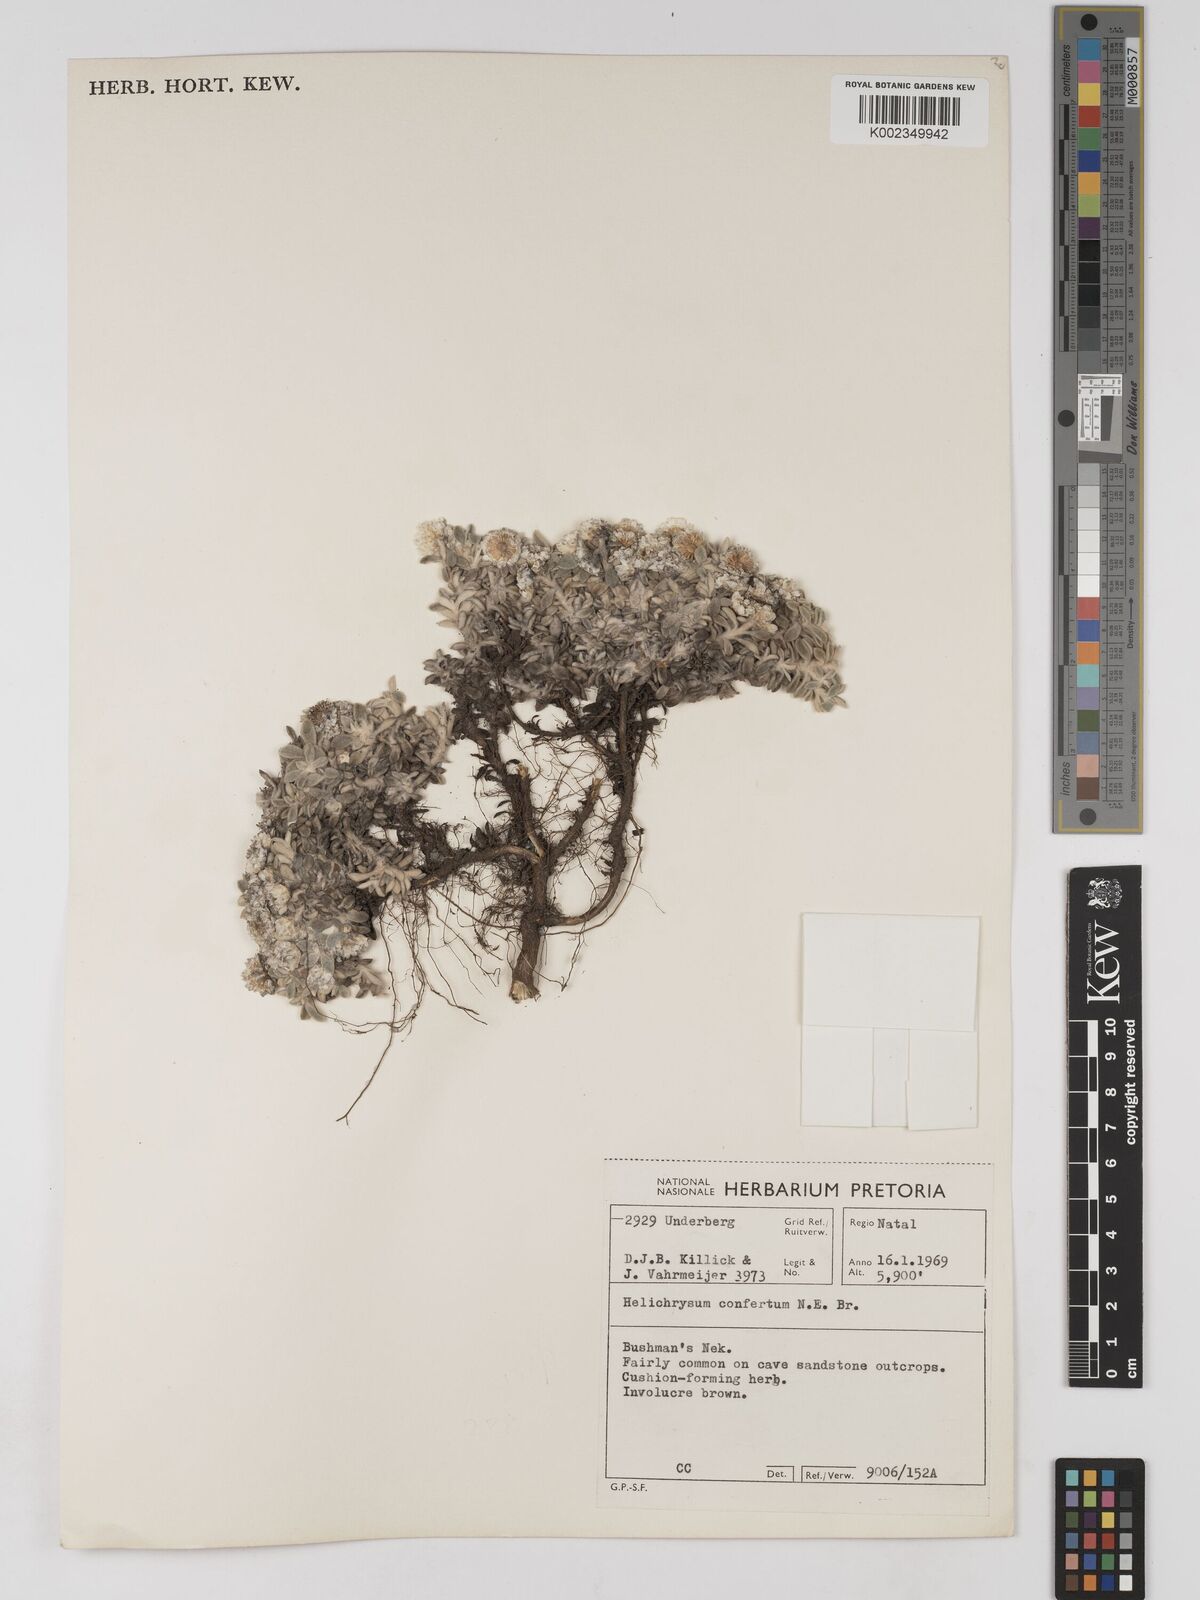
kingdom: Plantae
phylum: Tracheophyta
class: Magnoliopsida
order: Asterales
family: Asteraceae
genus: Helichrysum
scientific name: Helichrysum confertum
